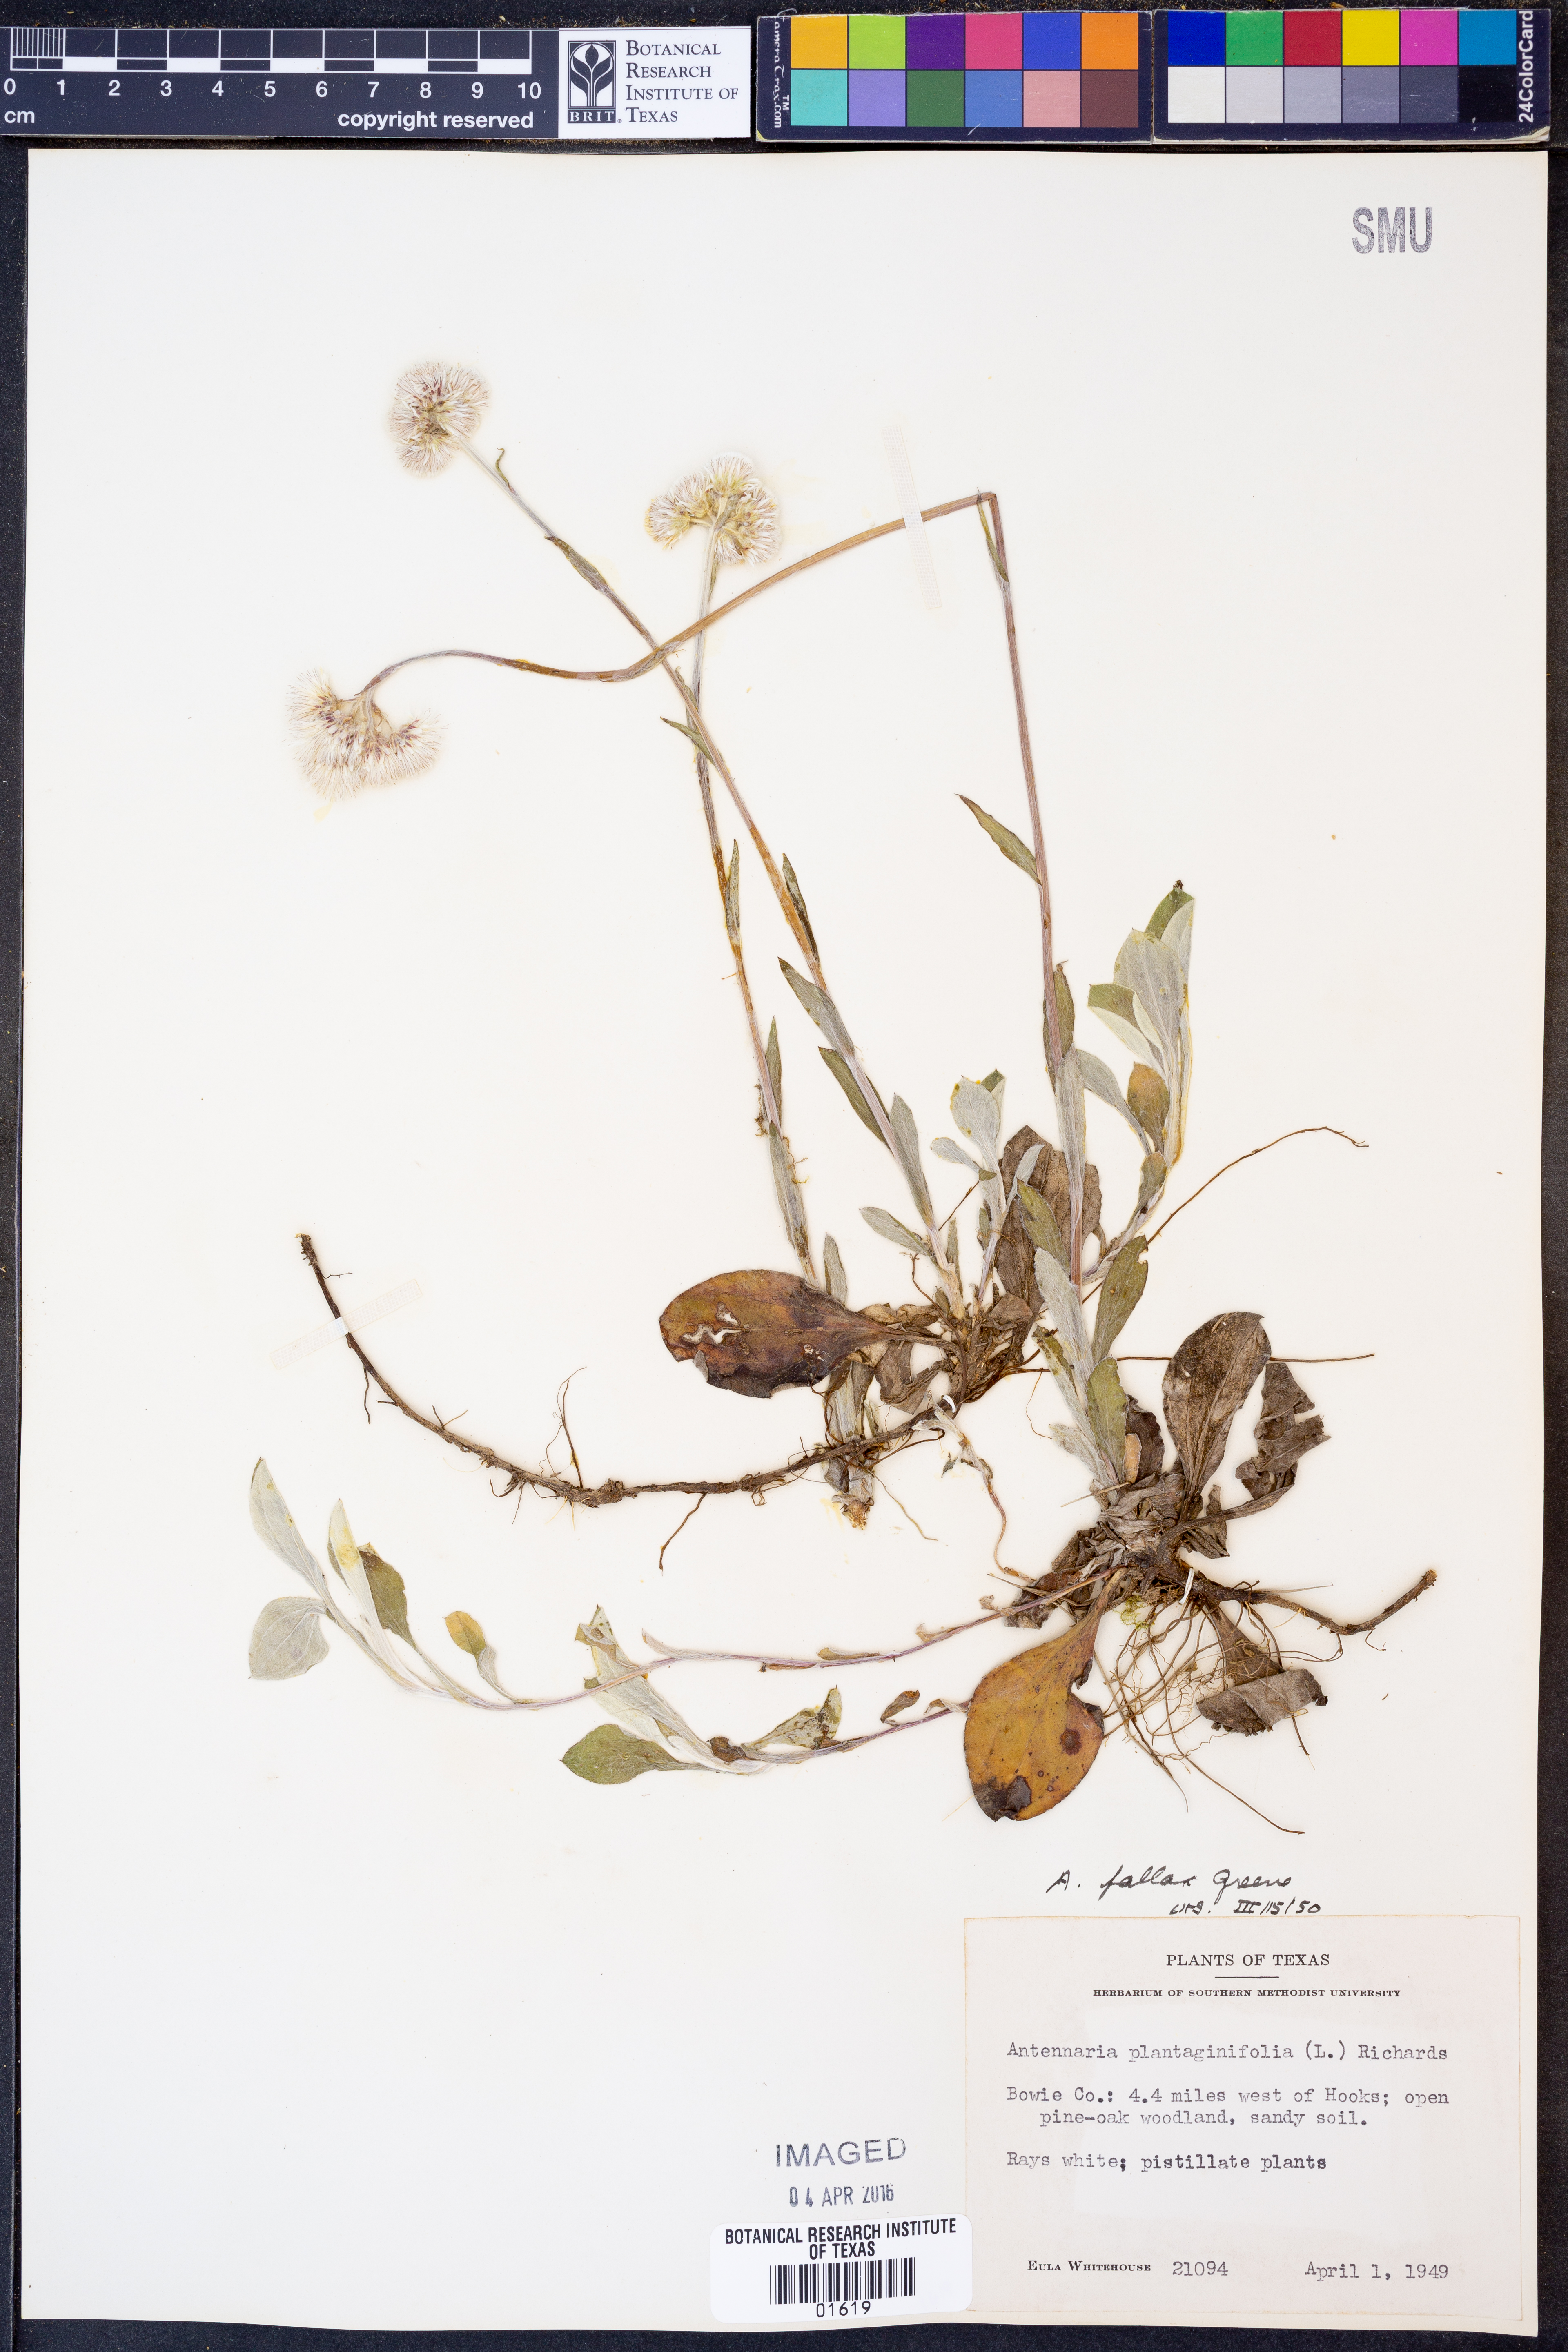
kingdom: Plantae
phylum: Tracheophyta
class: Magnoliopsida
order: Asterales
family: Asteraceae
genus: Antennaria
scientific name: Antennaria parlinii
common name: Parlin's pussytoes
